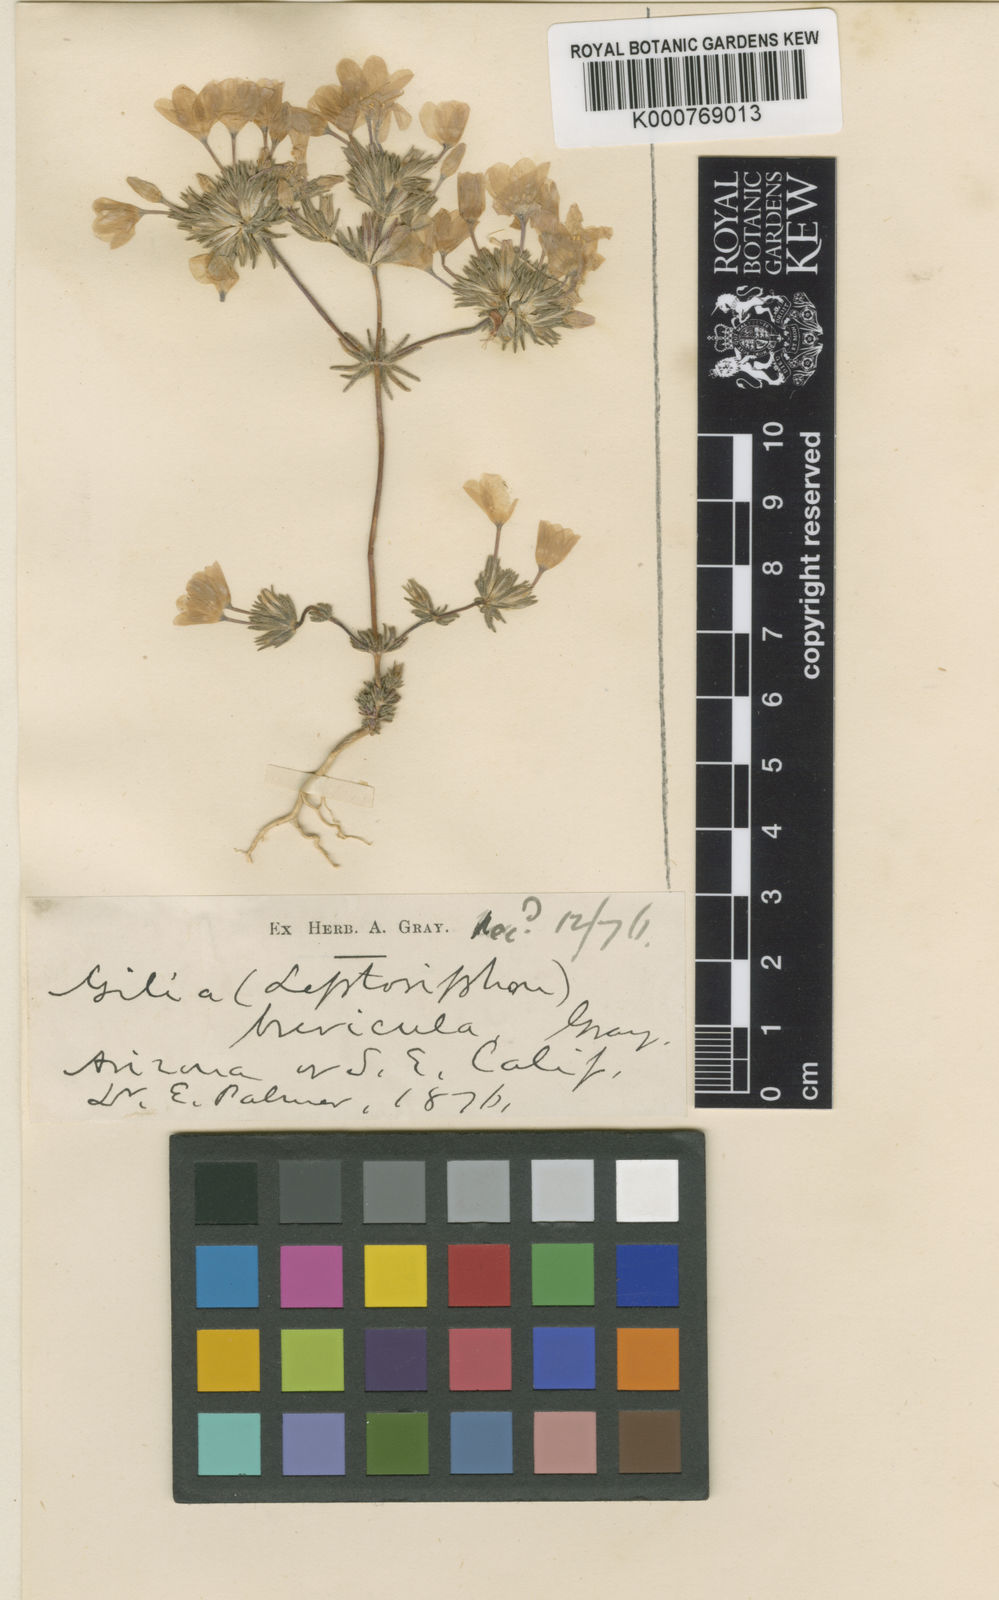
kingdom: Plantae
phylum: Tracheophyta
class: Magnoliopsida
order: Ericales
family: Polemoniaceae
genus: Leptosiphon
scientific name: Leptosiphon breviculus
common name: Mojave linanthus
